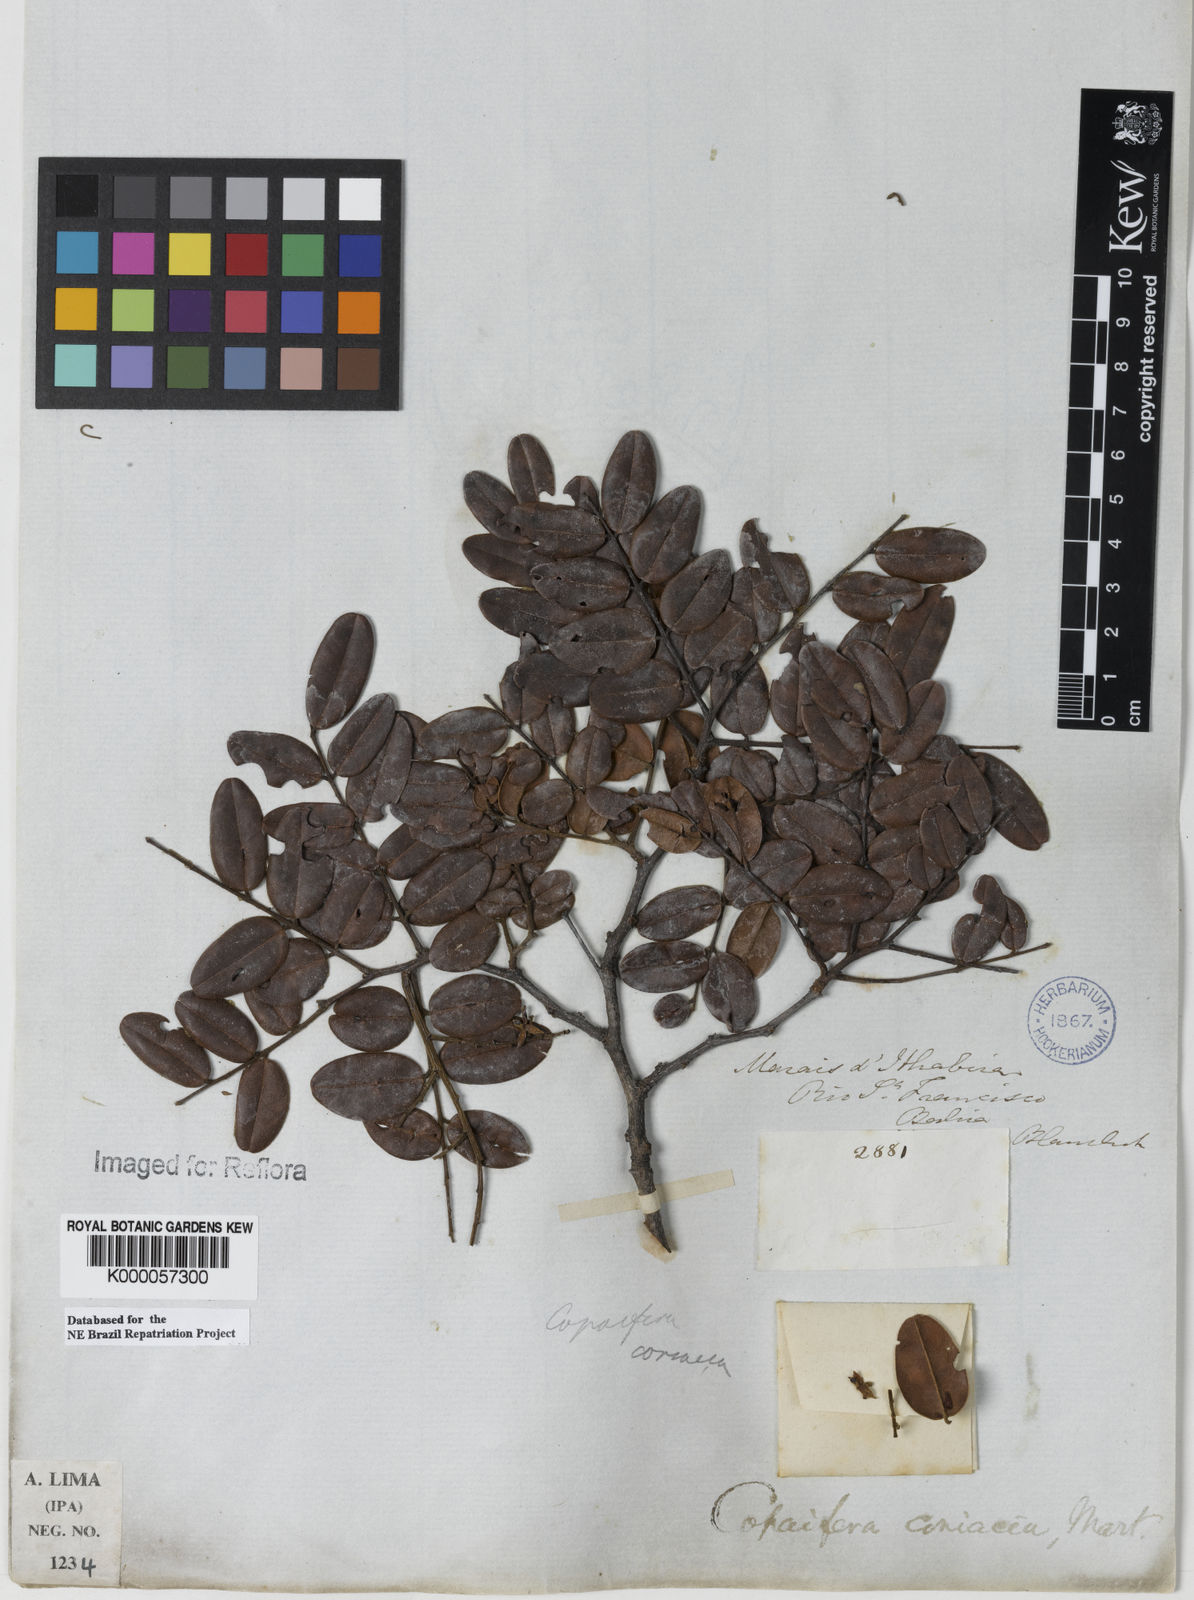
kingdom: Plantae
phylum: Tracheophyta
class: Magnoliopsida
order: Fabales
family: Fabaceae
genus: Copaifera
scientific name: Copaifera coriacea
